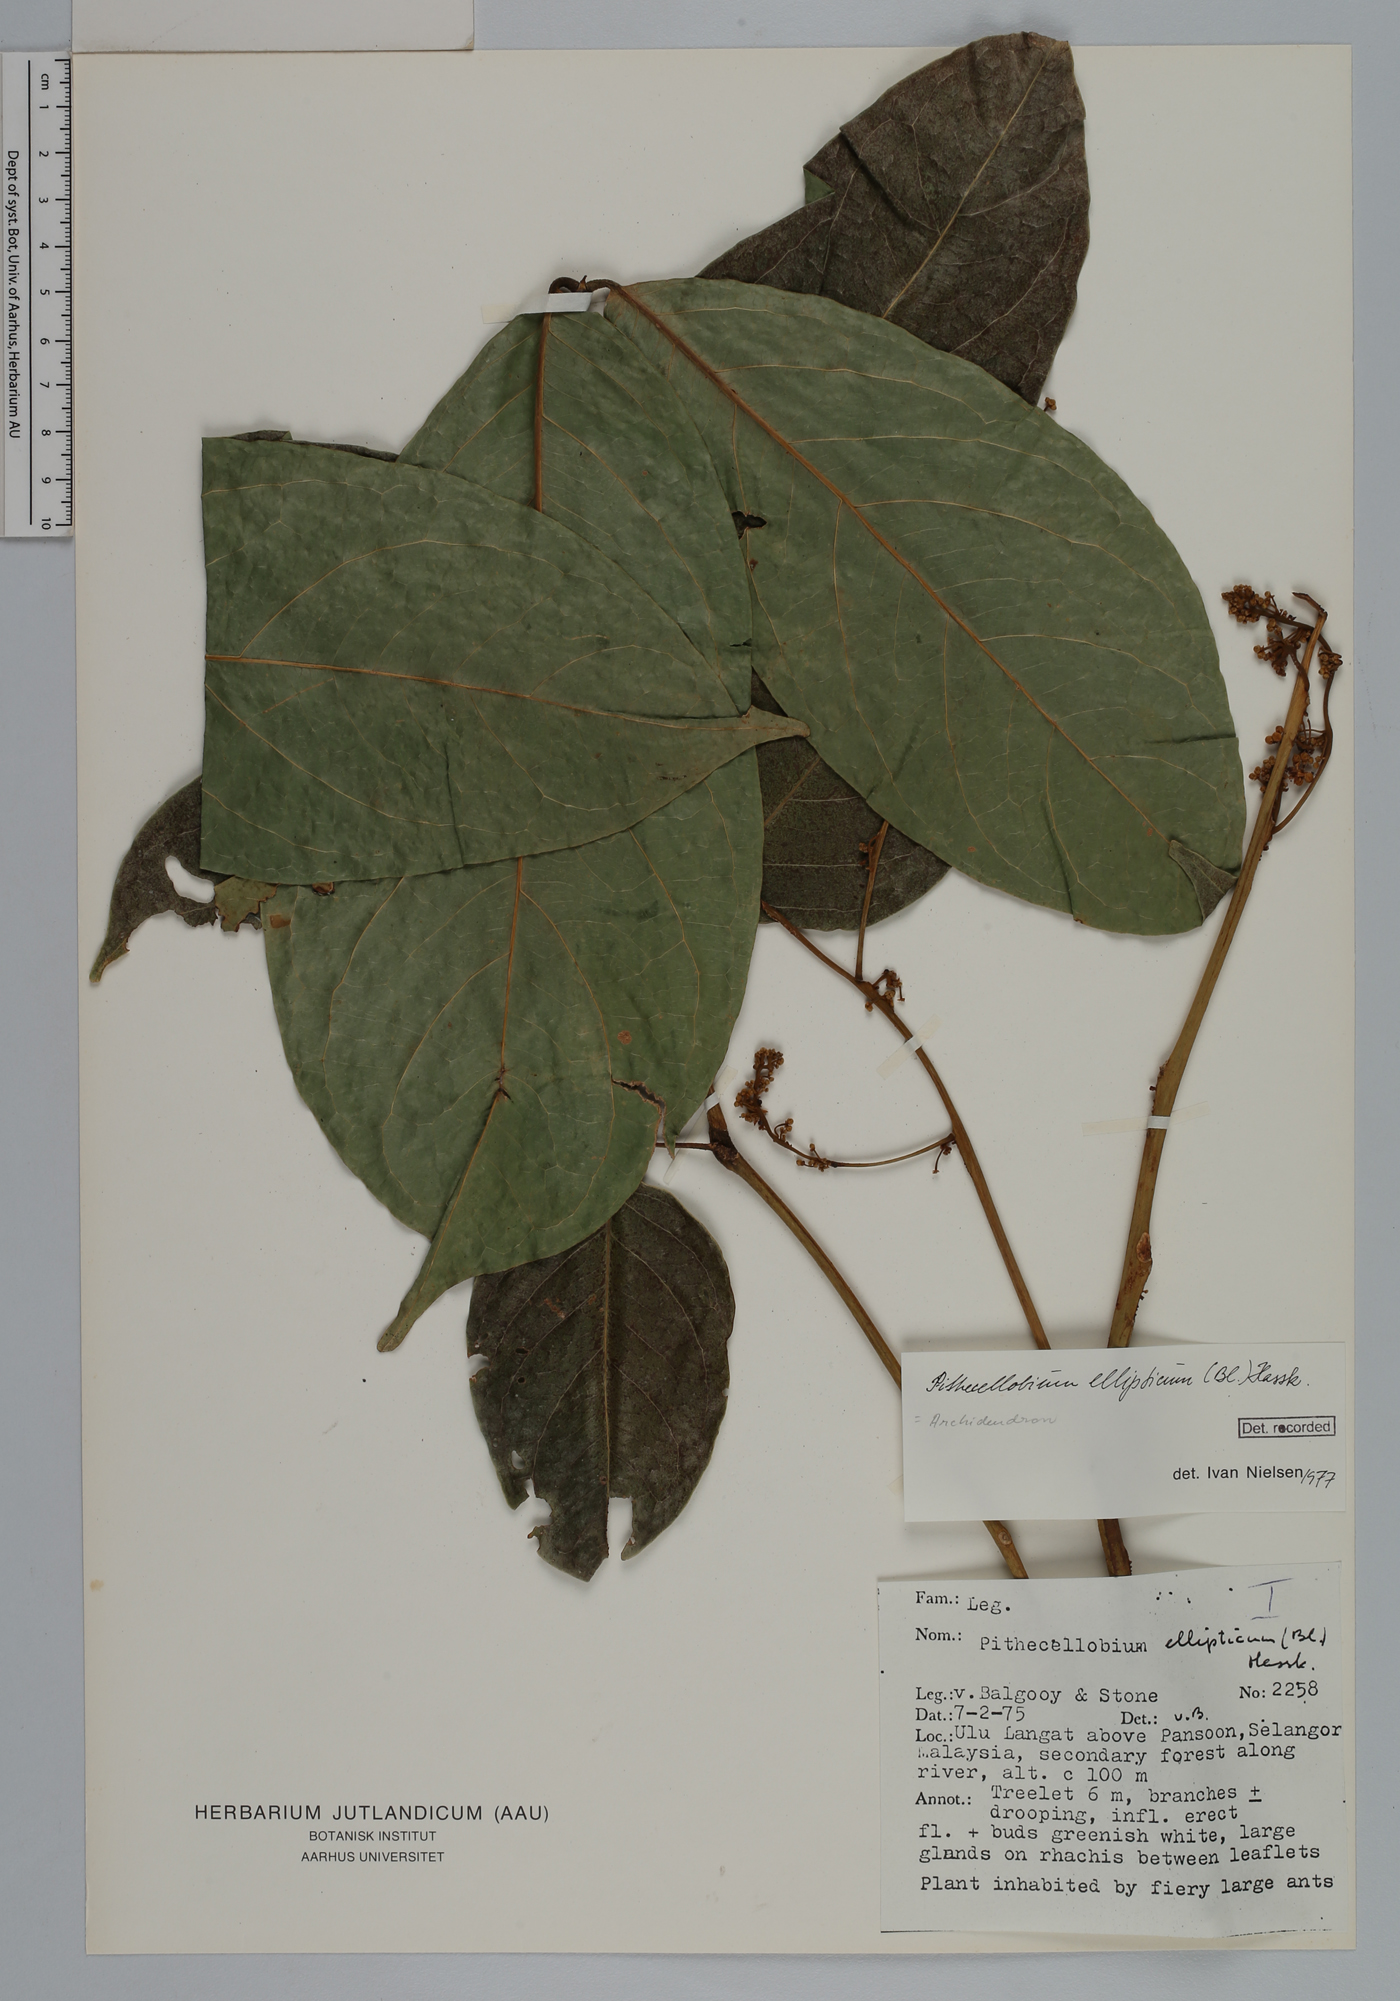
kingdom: Plantae
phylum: Tracheophyta
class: Magnoliopsida
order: Fabales
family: Fabaceae
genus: Archidendron
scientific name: Archidendron ellipticum
